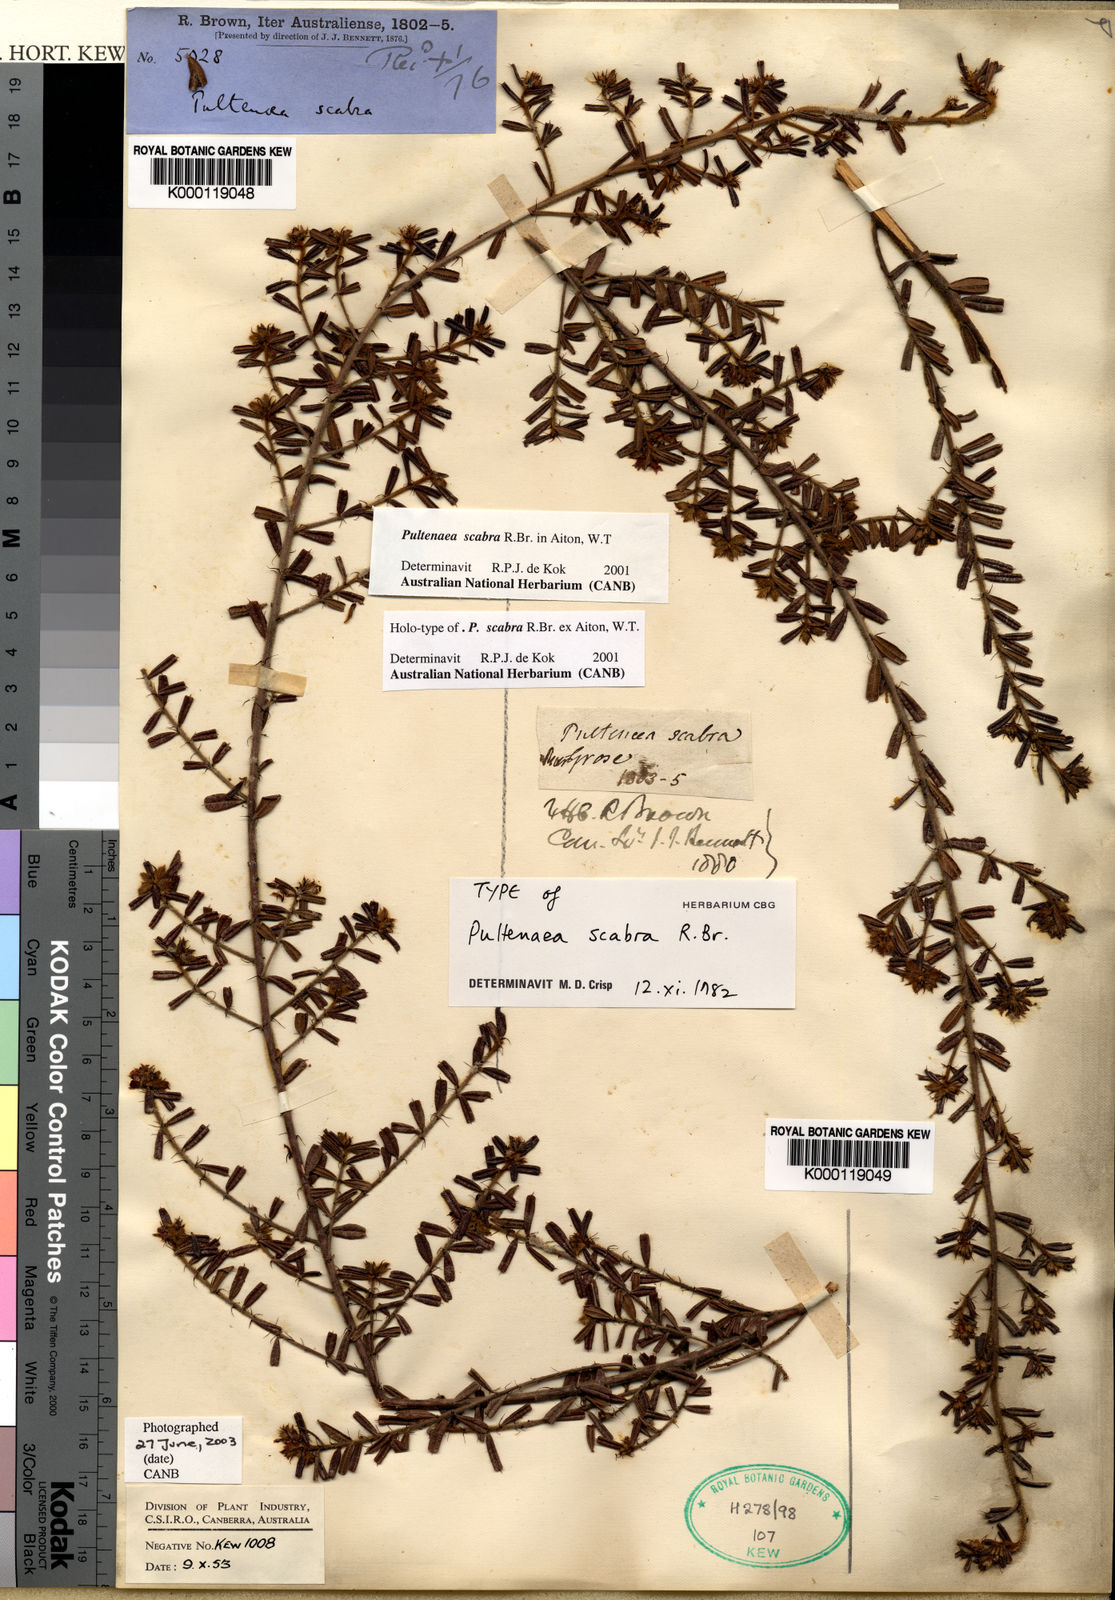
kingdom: Plantae
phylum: Tracheophyta
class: Magnoliopsida
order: Fabales
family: Fabaceae
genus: Pultenaea
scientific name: Pultenaea scabra
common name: Rough bush-pea
